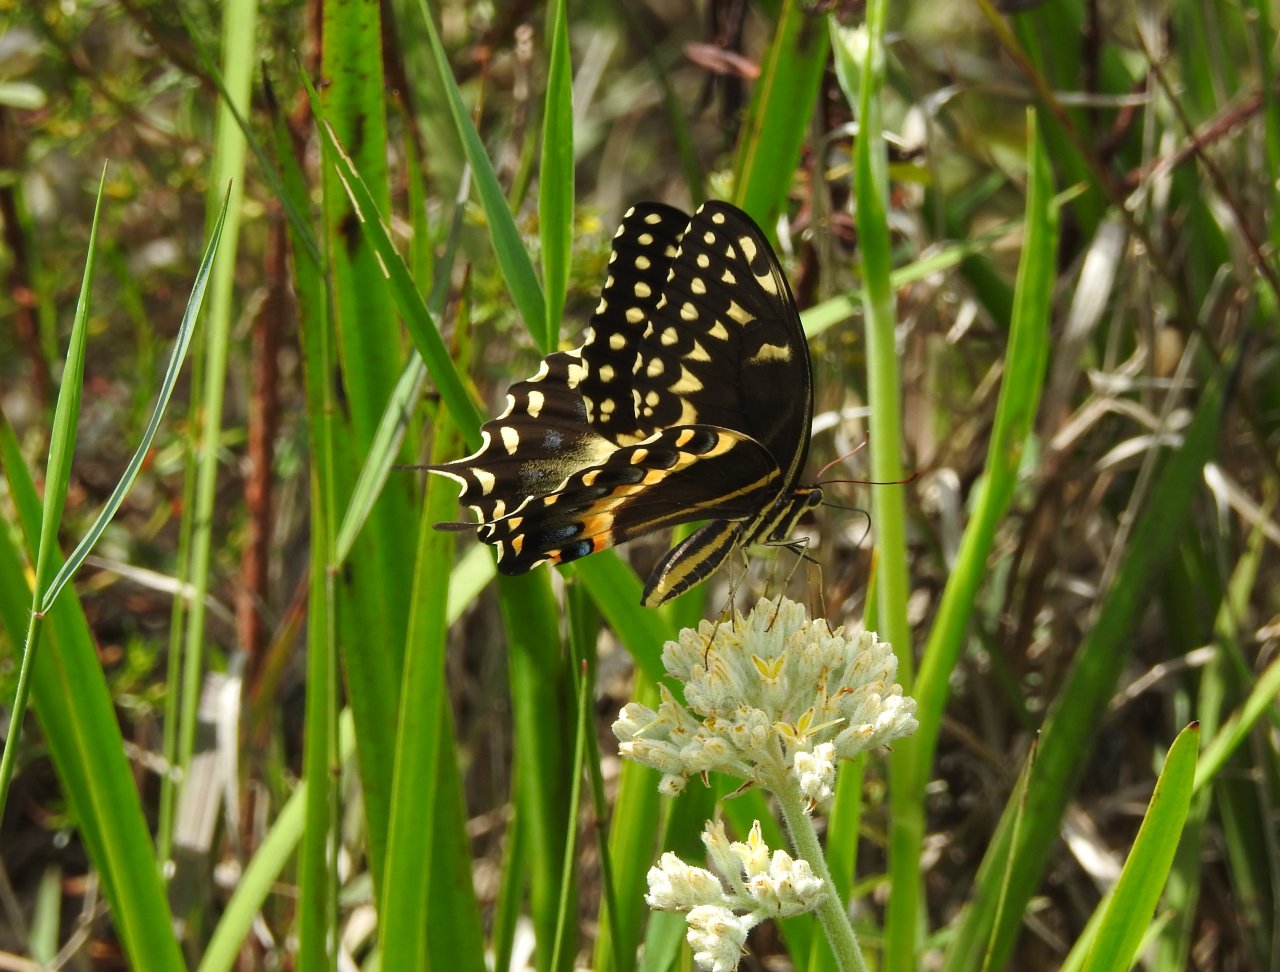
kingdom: Animalia
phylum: Arthropoda
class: Insecta
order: Lepidoptera
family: Papilionidae
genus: Pterourus
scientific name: Pterourus palamedes
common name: Palamedes Swallowtail
